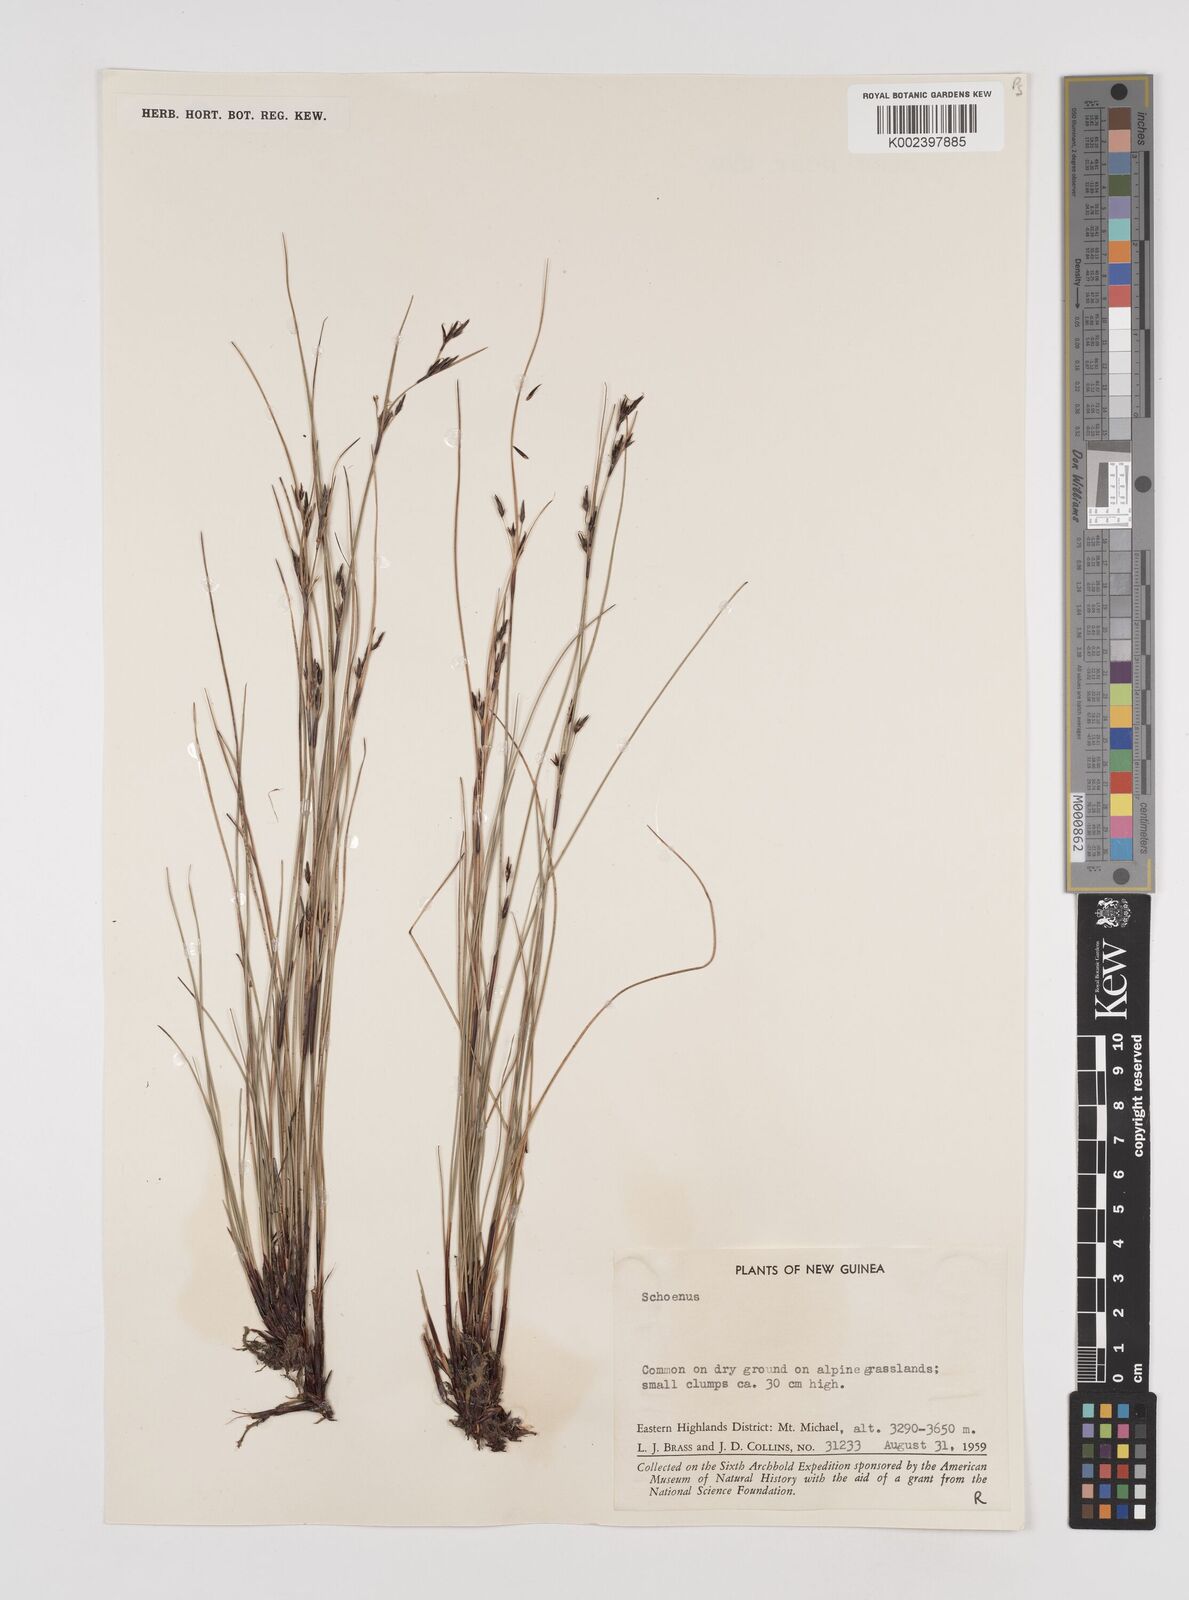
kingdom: Plantae
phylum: Tracheophyta
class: Liliopsida
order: Poales
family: Cyperaceae
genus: Schoenus
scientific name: Schoenus curvulus
